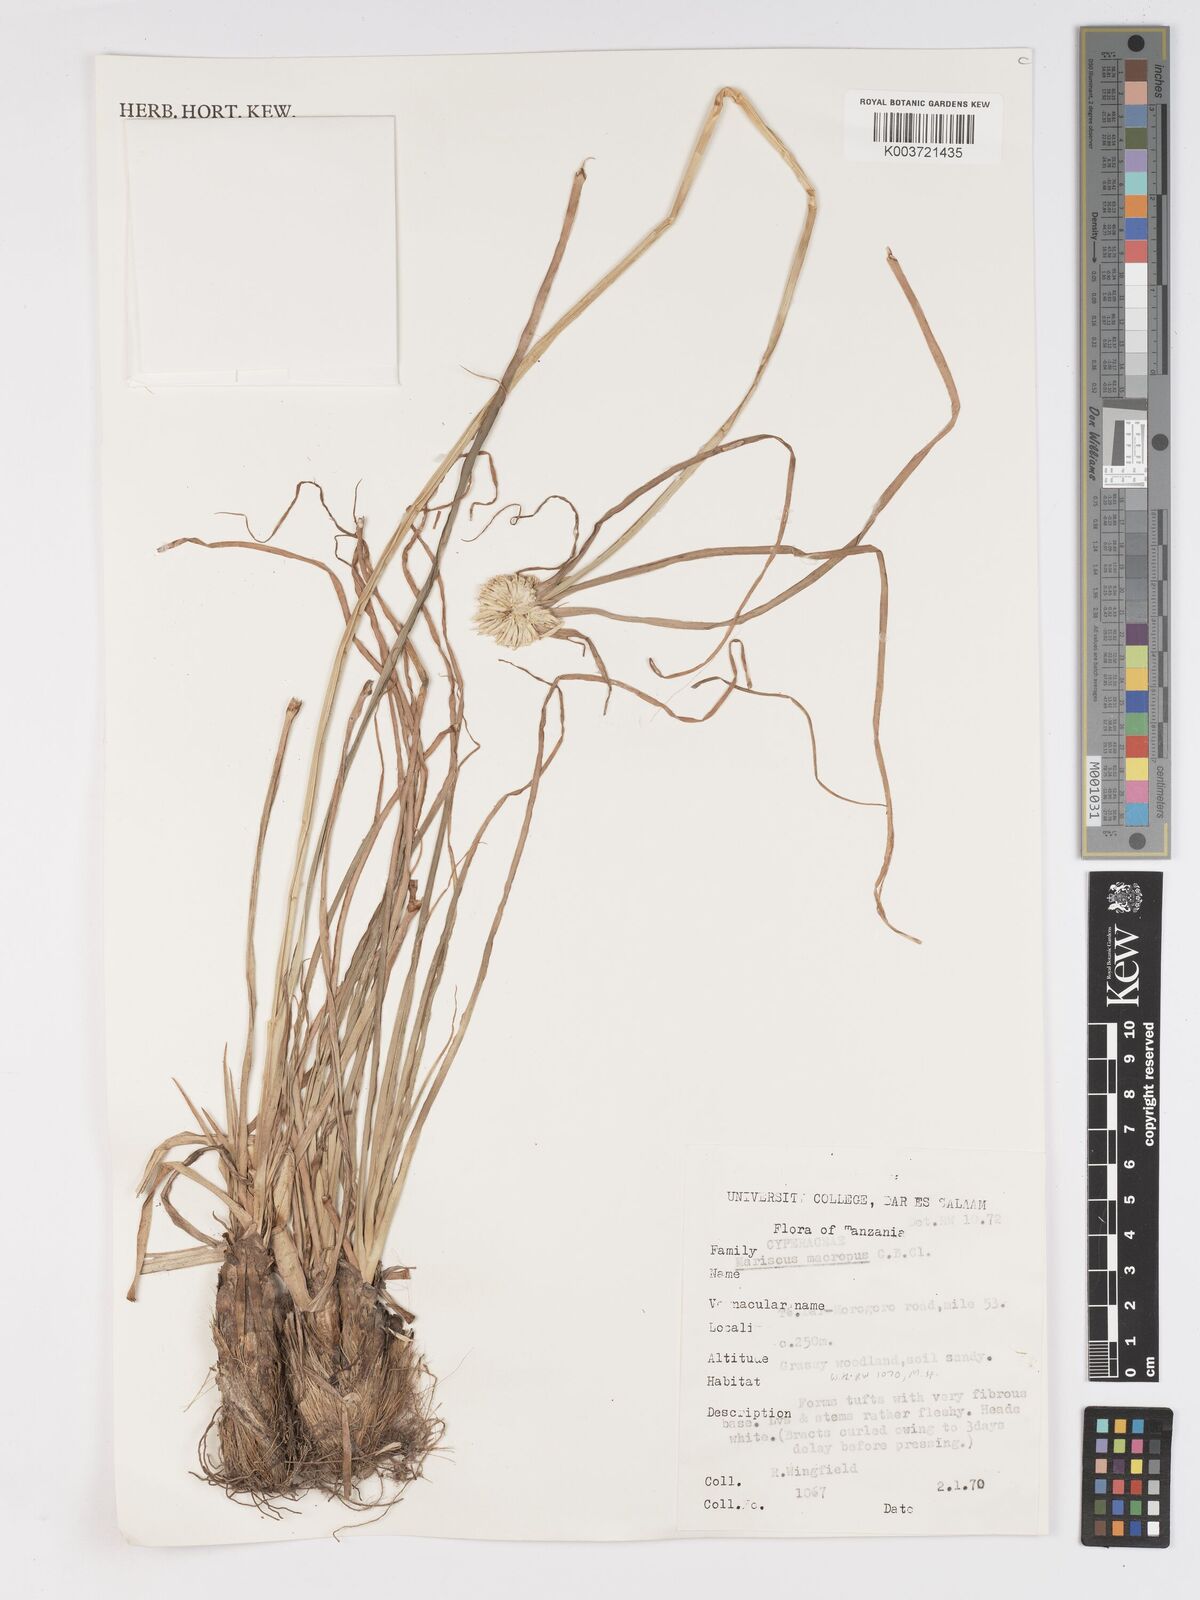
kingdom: Plantae
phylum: Tracheophyta
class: Liliopsida
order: Poales
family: Cyperaceae
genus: Cyperus
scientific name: Cyperus mollipes
